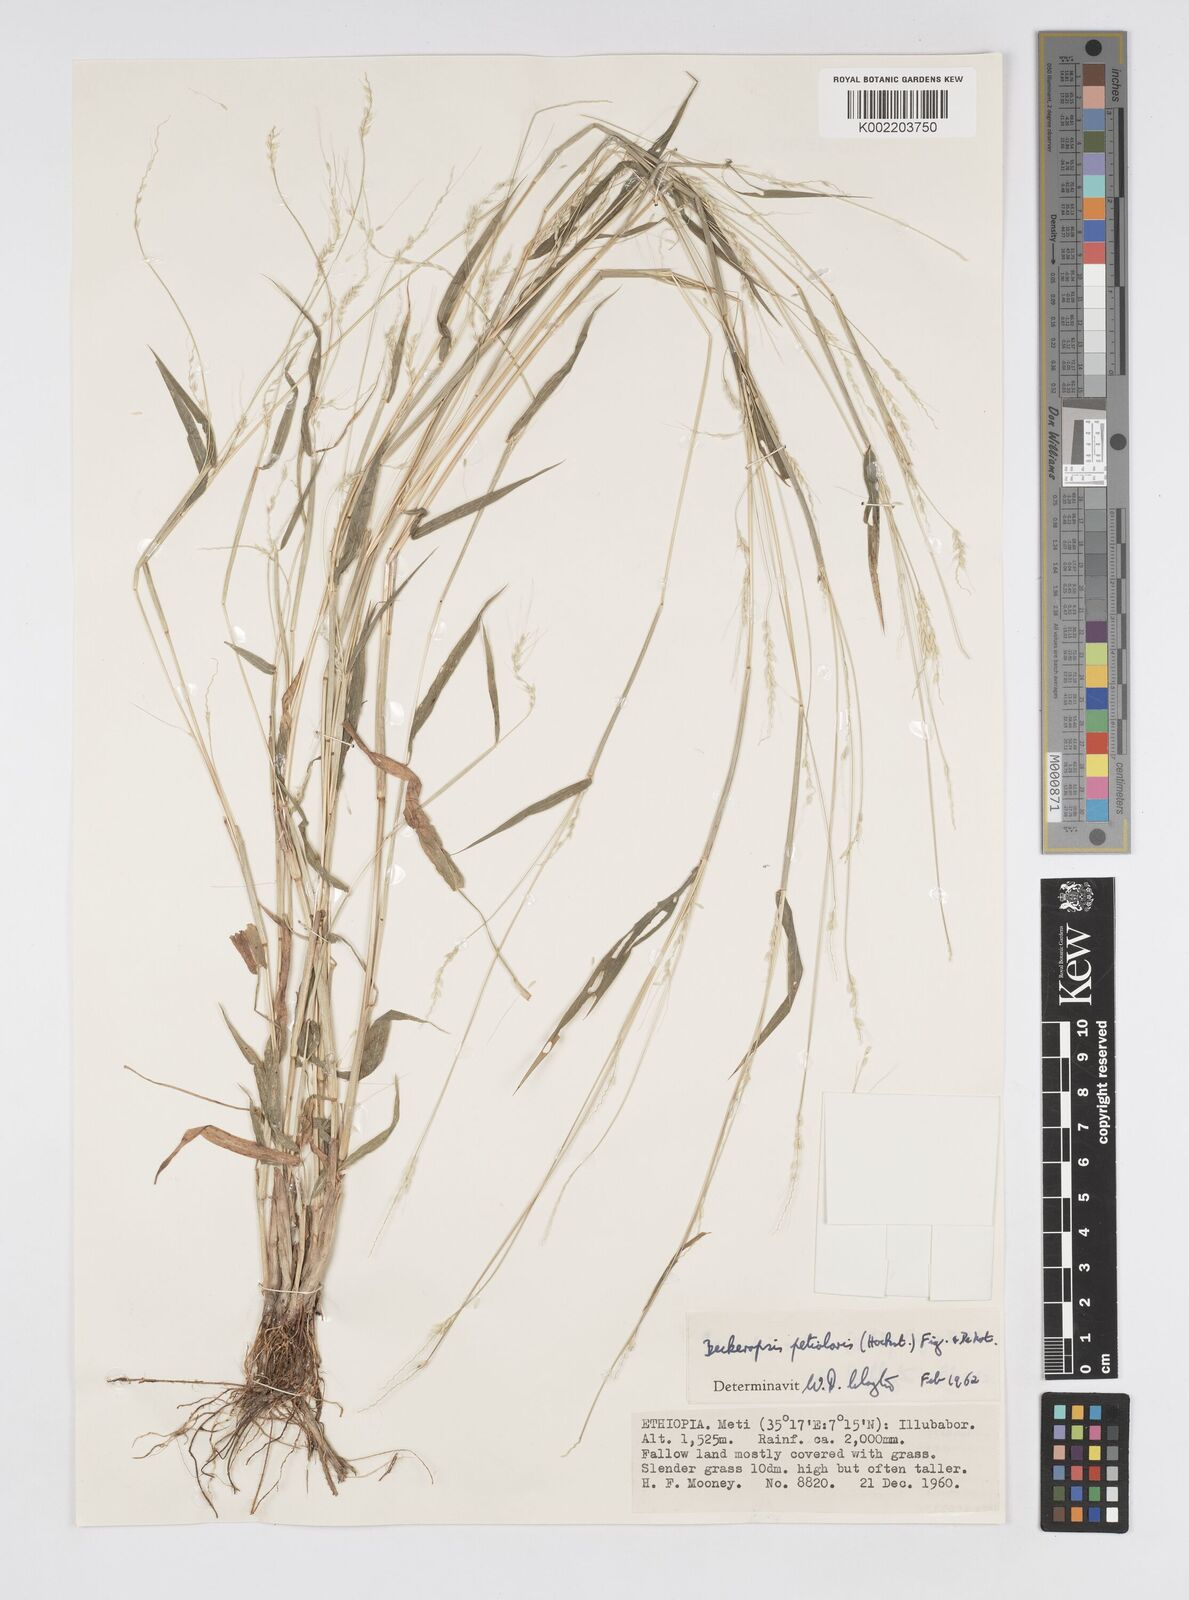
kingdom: Plantae
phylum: Tracheophyta
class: Liliopsida
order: Poales
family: Poaceae
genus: Cenchrus
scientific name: Cenchrus petiolaris
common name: Grass
